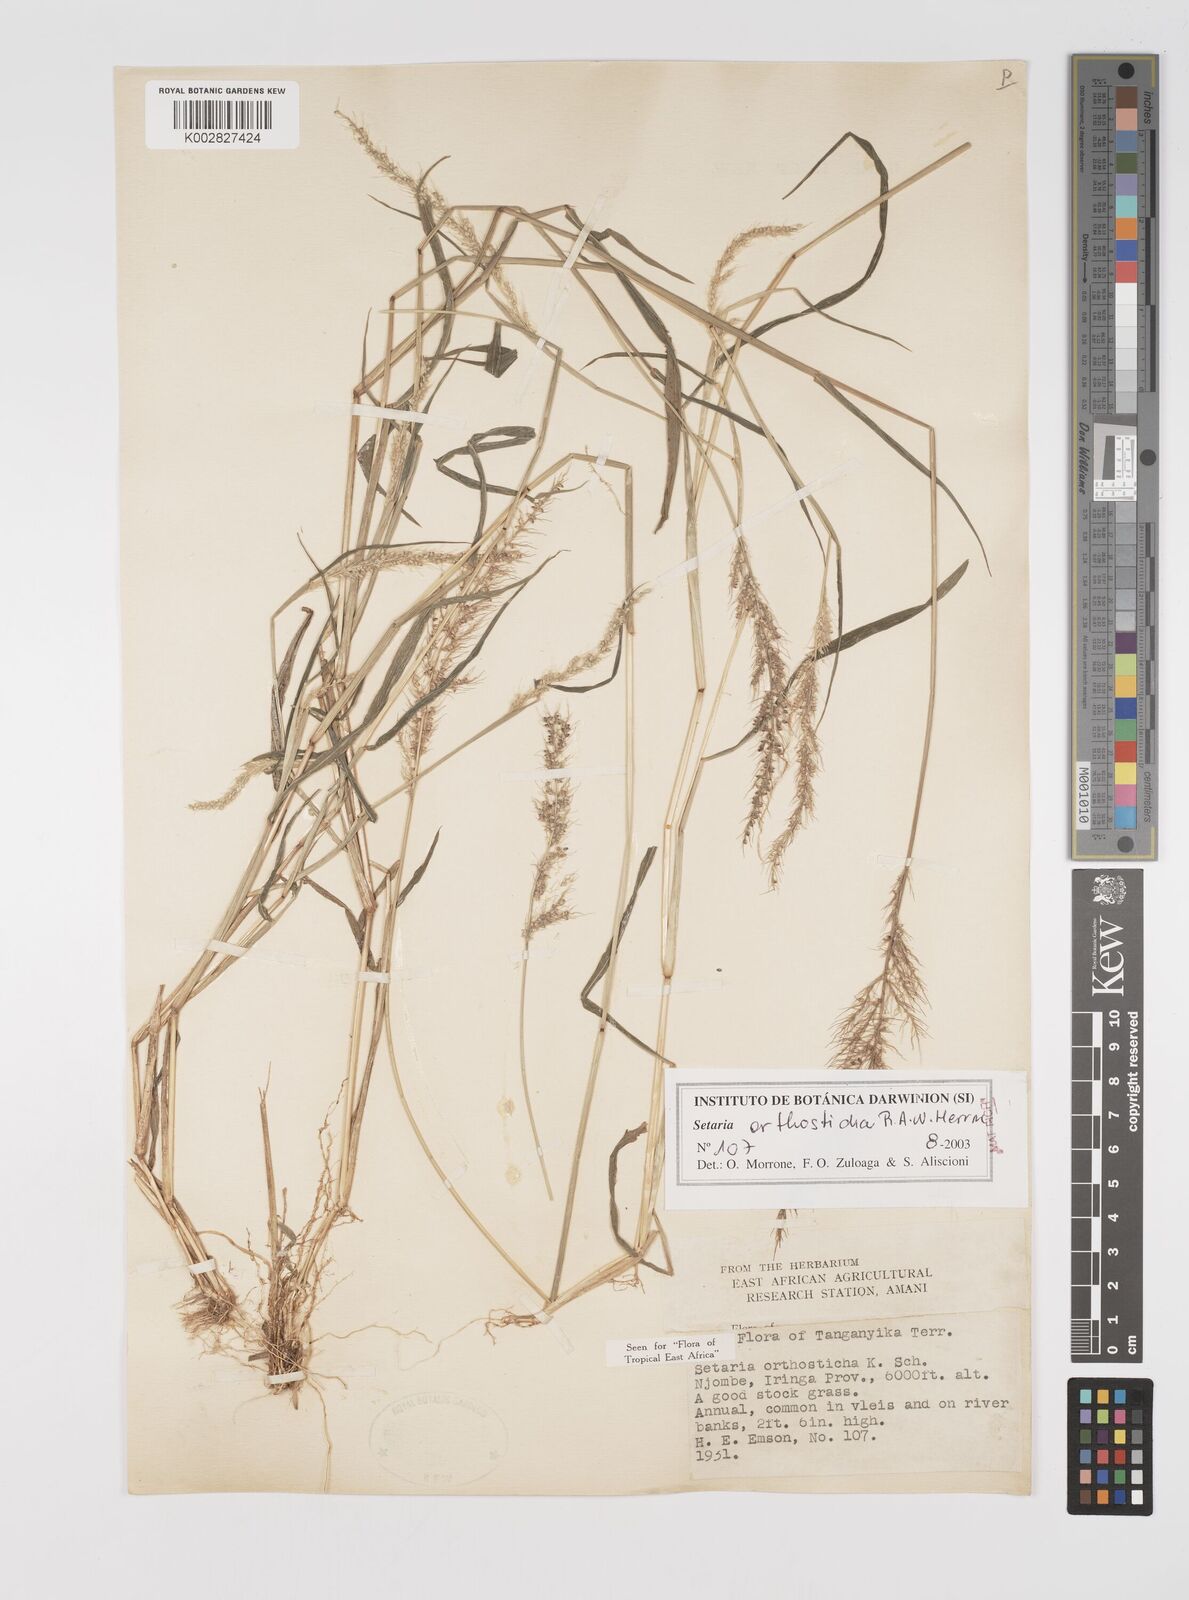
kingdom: Plantae
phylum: Tracheophyta
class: Liliopsida
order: Poales
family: Poaceae
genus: Setaria
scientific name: Setaria orthosticha
